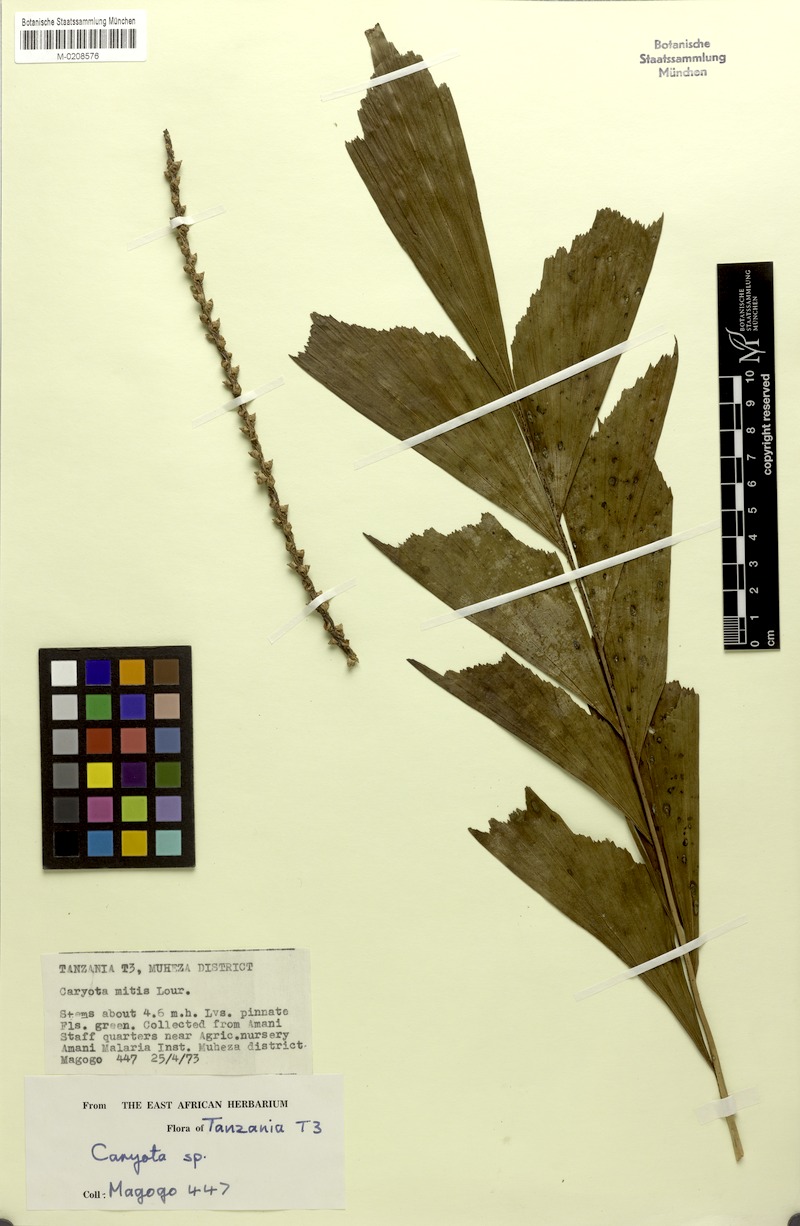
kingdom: Plantae
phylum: Tracheophyta
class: Liliopsida
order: Arecales
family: Arecaceae
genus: Caryota
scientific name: Caryota mitis
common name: Burmese fishtail palm
